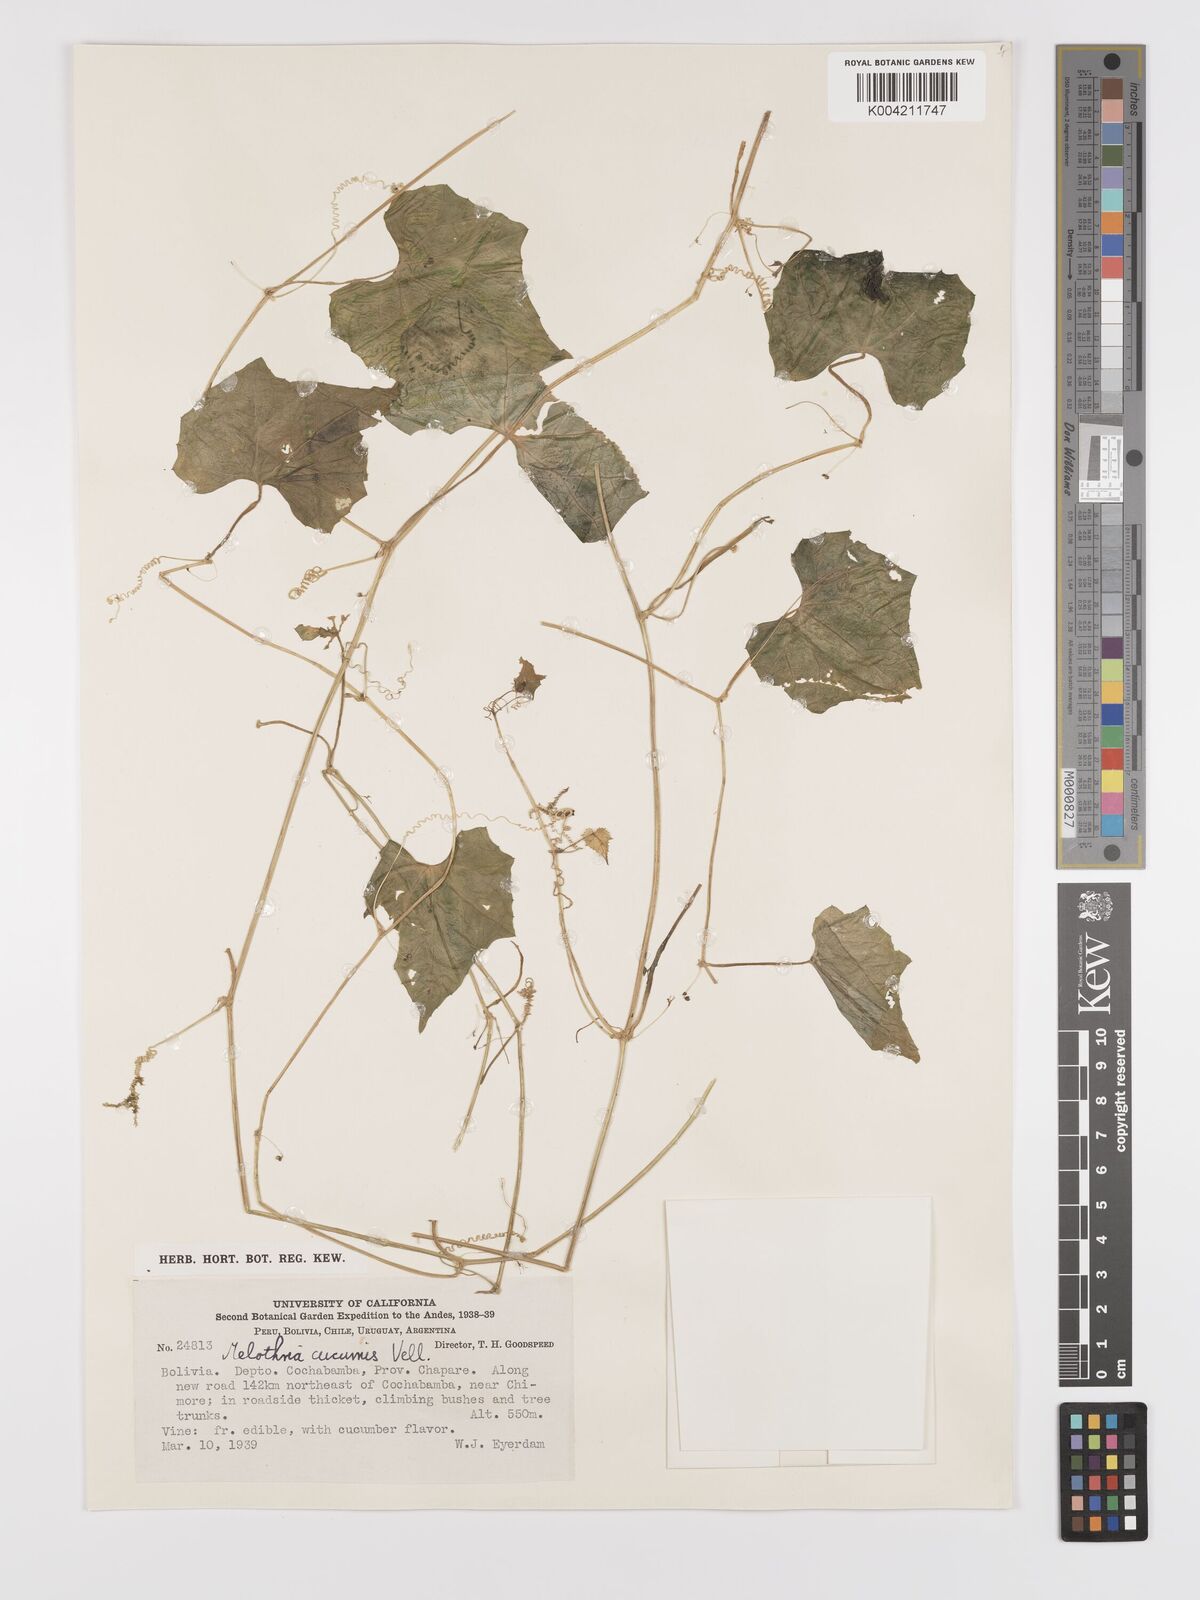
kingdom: Plantae
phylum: Tracheophyta
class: Magnoliopsida
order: Cucurbitales
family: Cucurbitaceae
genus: Melothria
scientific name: Melothria cucumis
